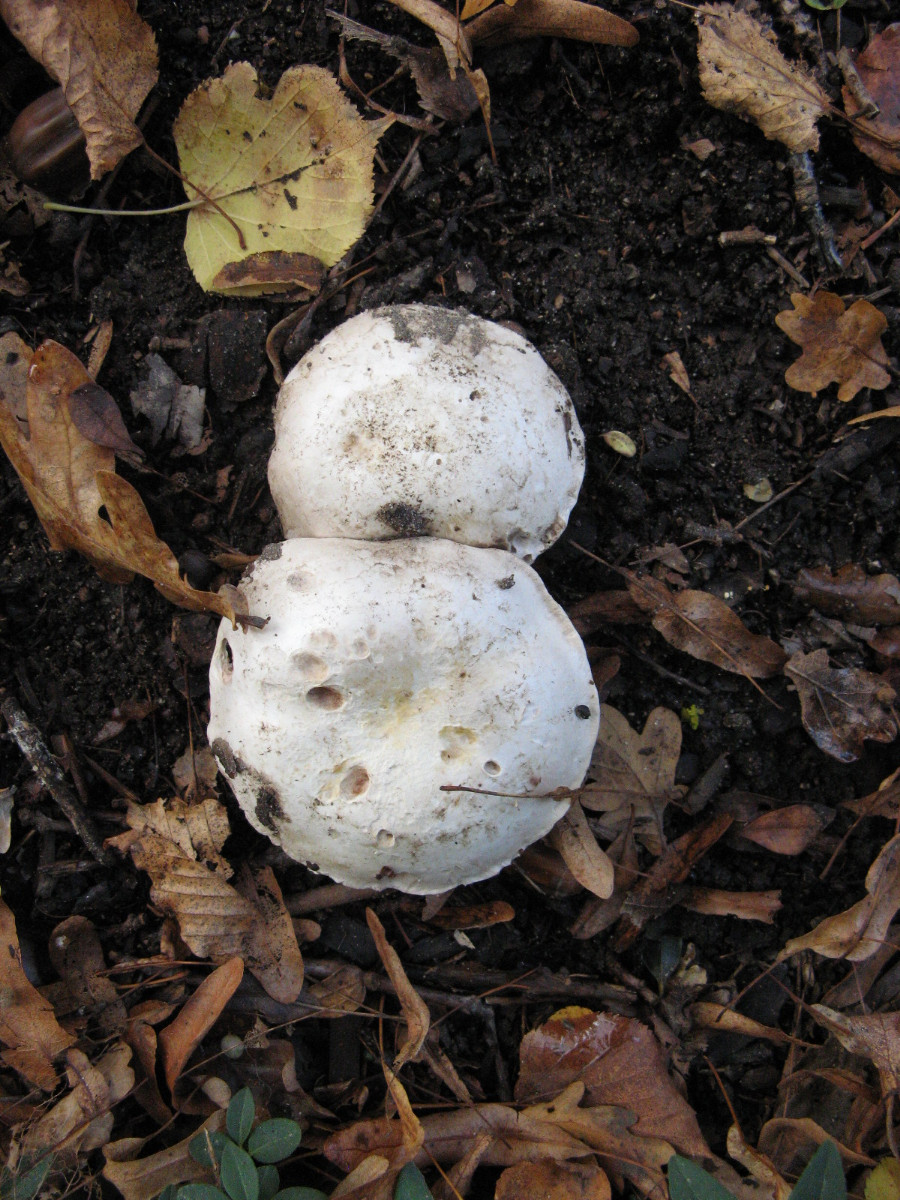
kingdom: Fungi
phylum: Basidiomycota
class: Agaricomycetes
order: Agaricales
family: Agaricaceae
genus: Agaricus
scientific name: Agaricus bitorquis
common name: vej-champignon
